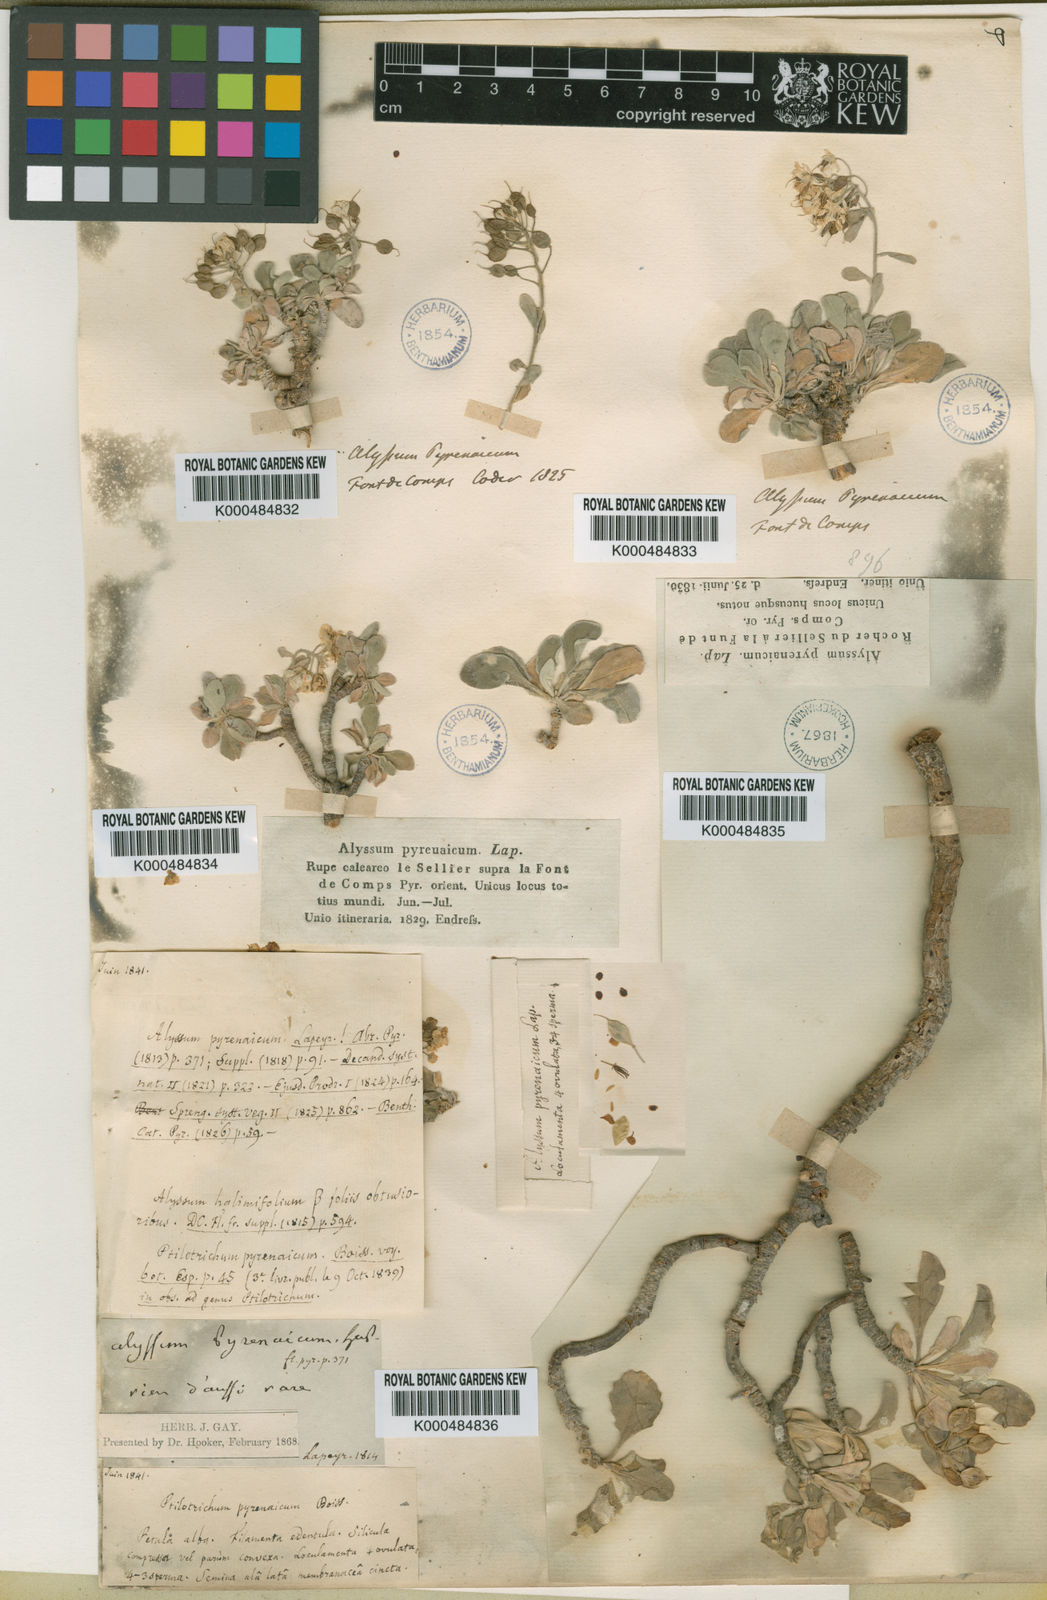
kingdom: Plantae
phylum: Tracheophyta
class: Magnoliopsida
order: Brassicales
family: Brassicaceae
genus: Hormathophylla
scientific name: Hormathophylla pyrenaica
